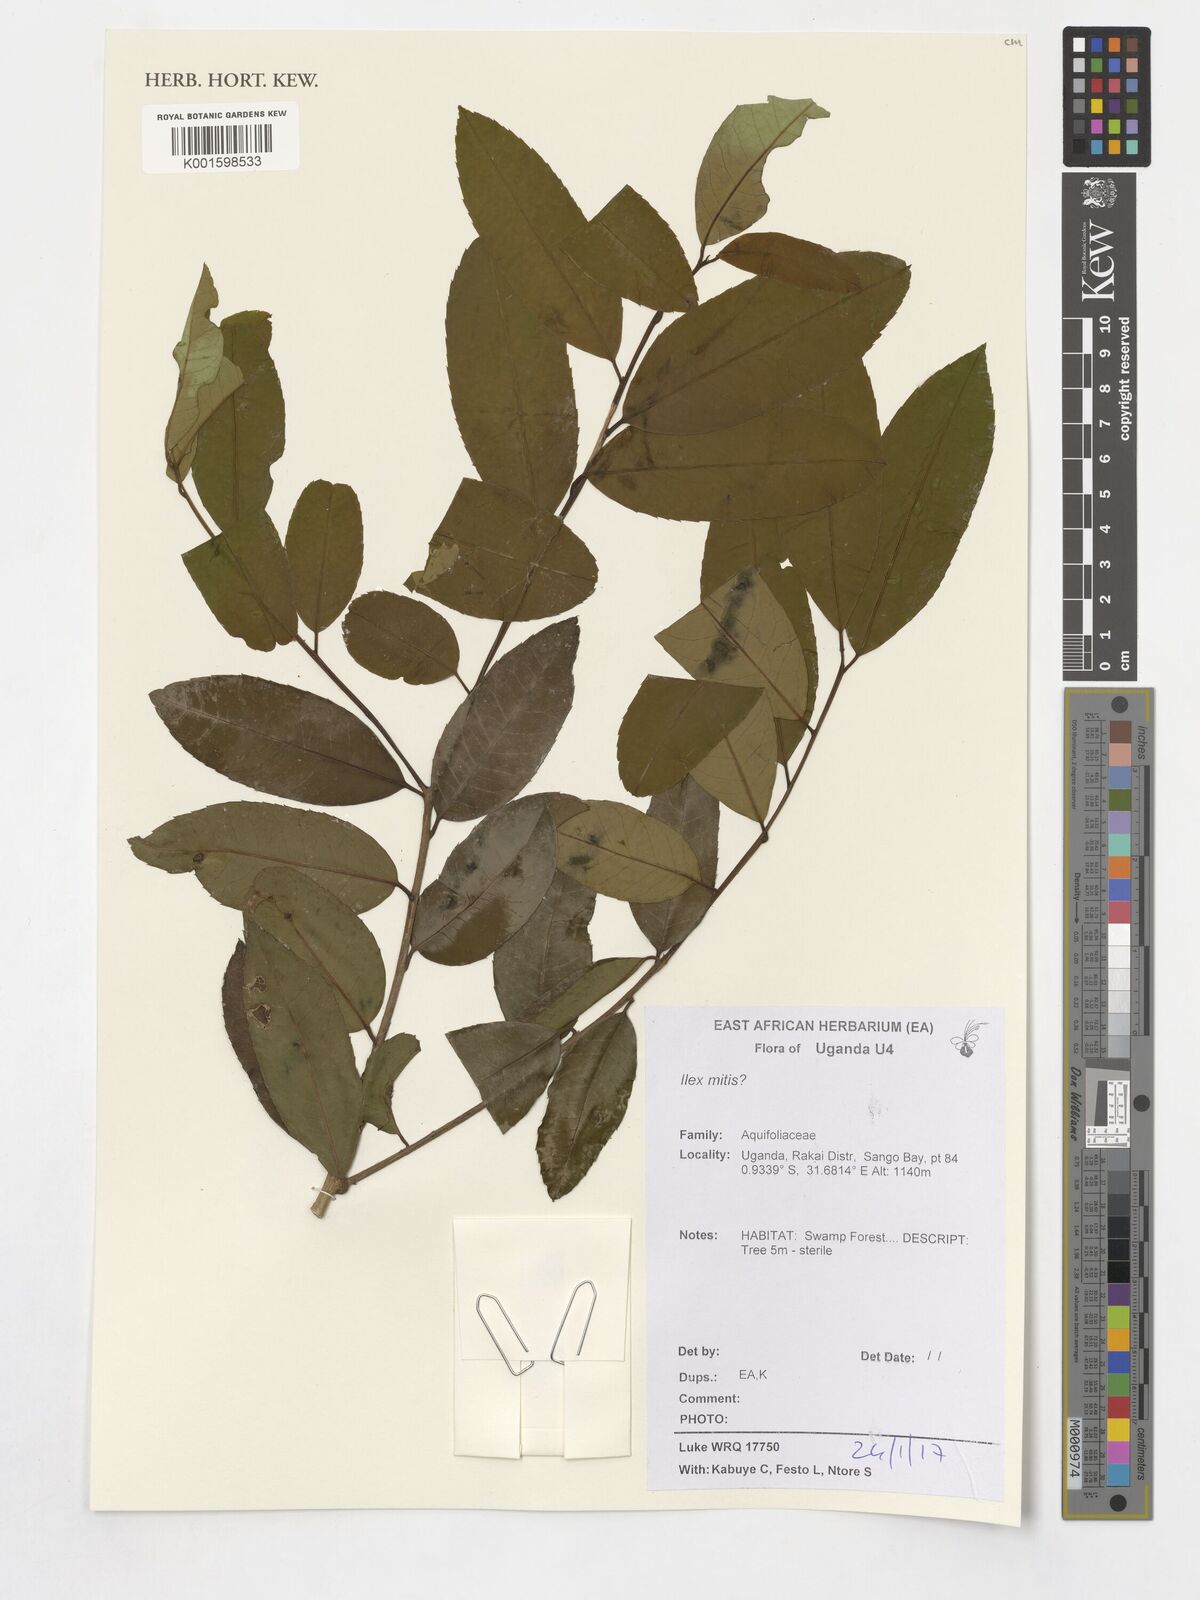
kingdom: Plantae
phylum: Tracheophyta
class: Magnoliopsida
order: Aquifoliales
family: Aquifoliaceae
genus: Ilex
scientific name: Ilex mitis
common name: African holly
